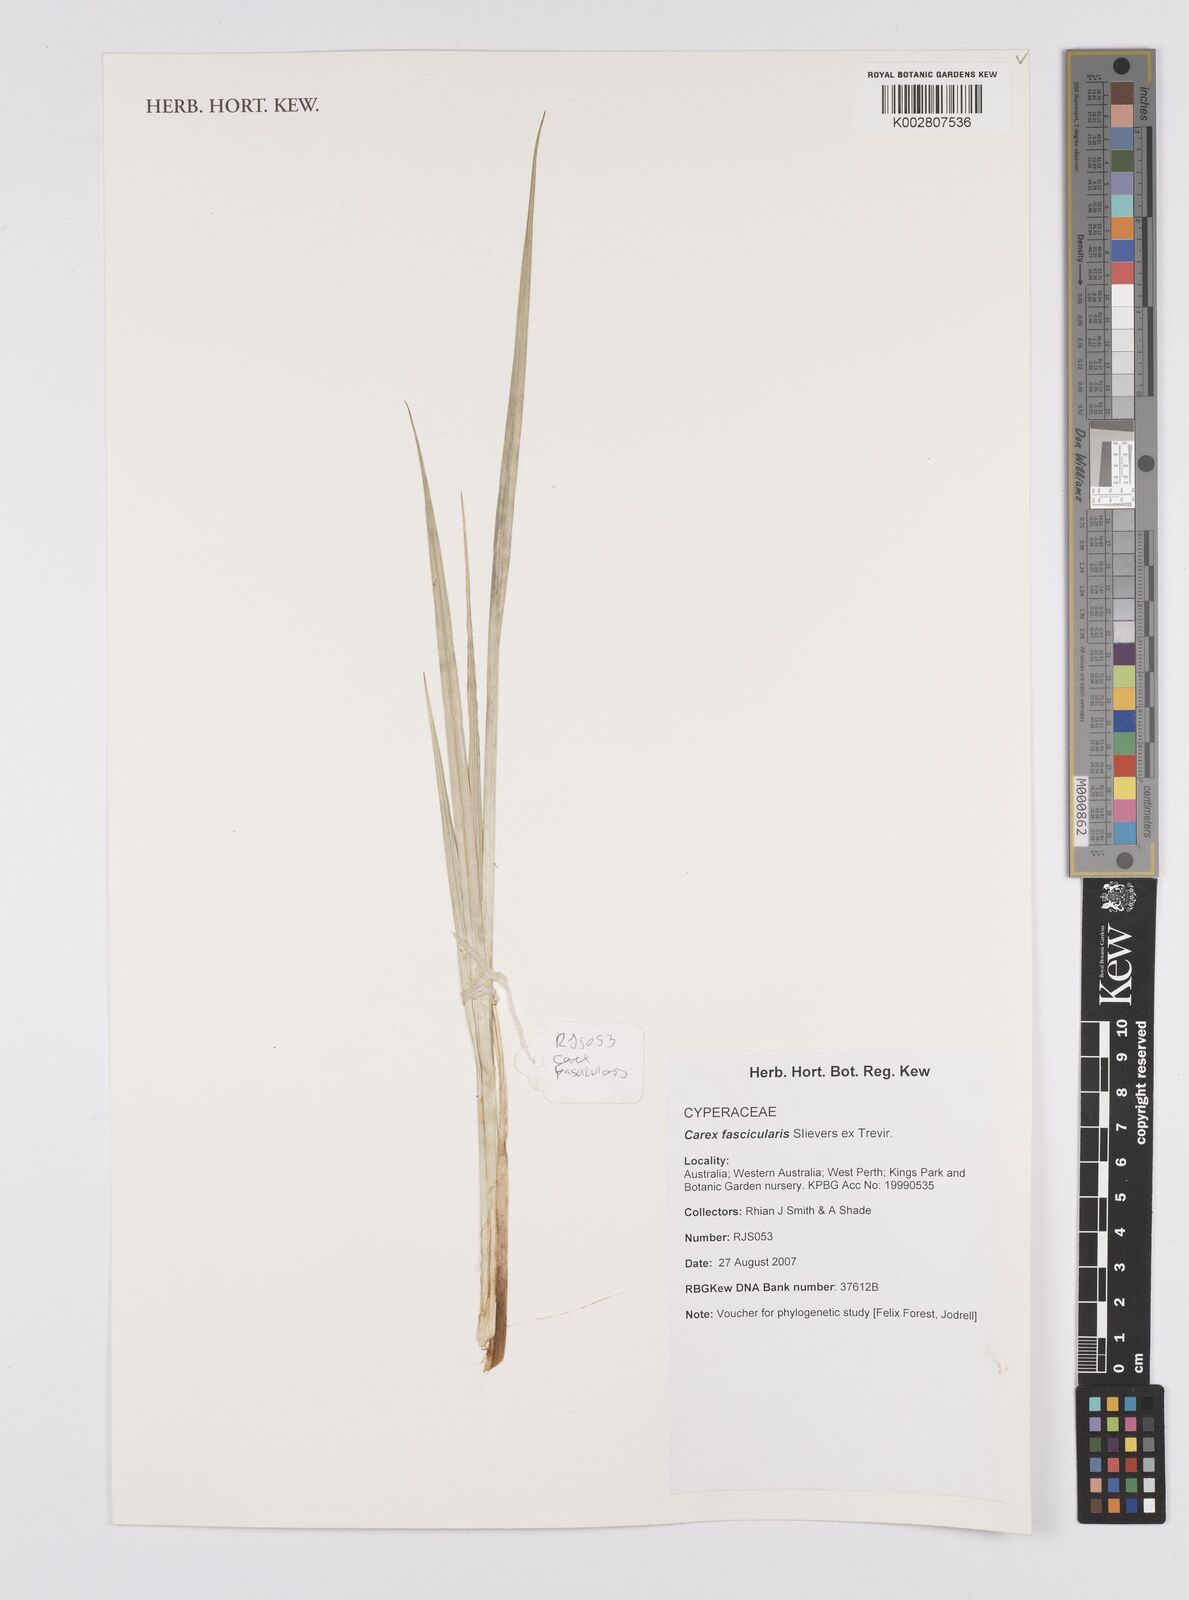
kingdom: Plantae
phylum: Tracheophyta
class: Liliopsida
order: Poales
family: Cyperaceae
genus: Carex
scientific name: Carex cespitosa
